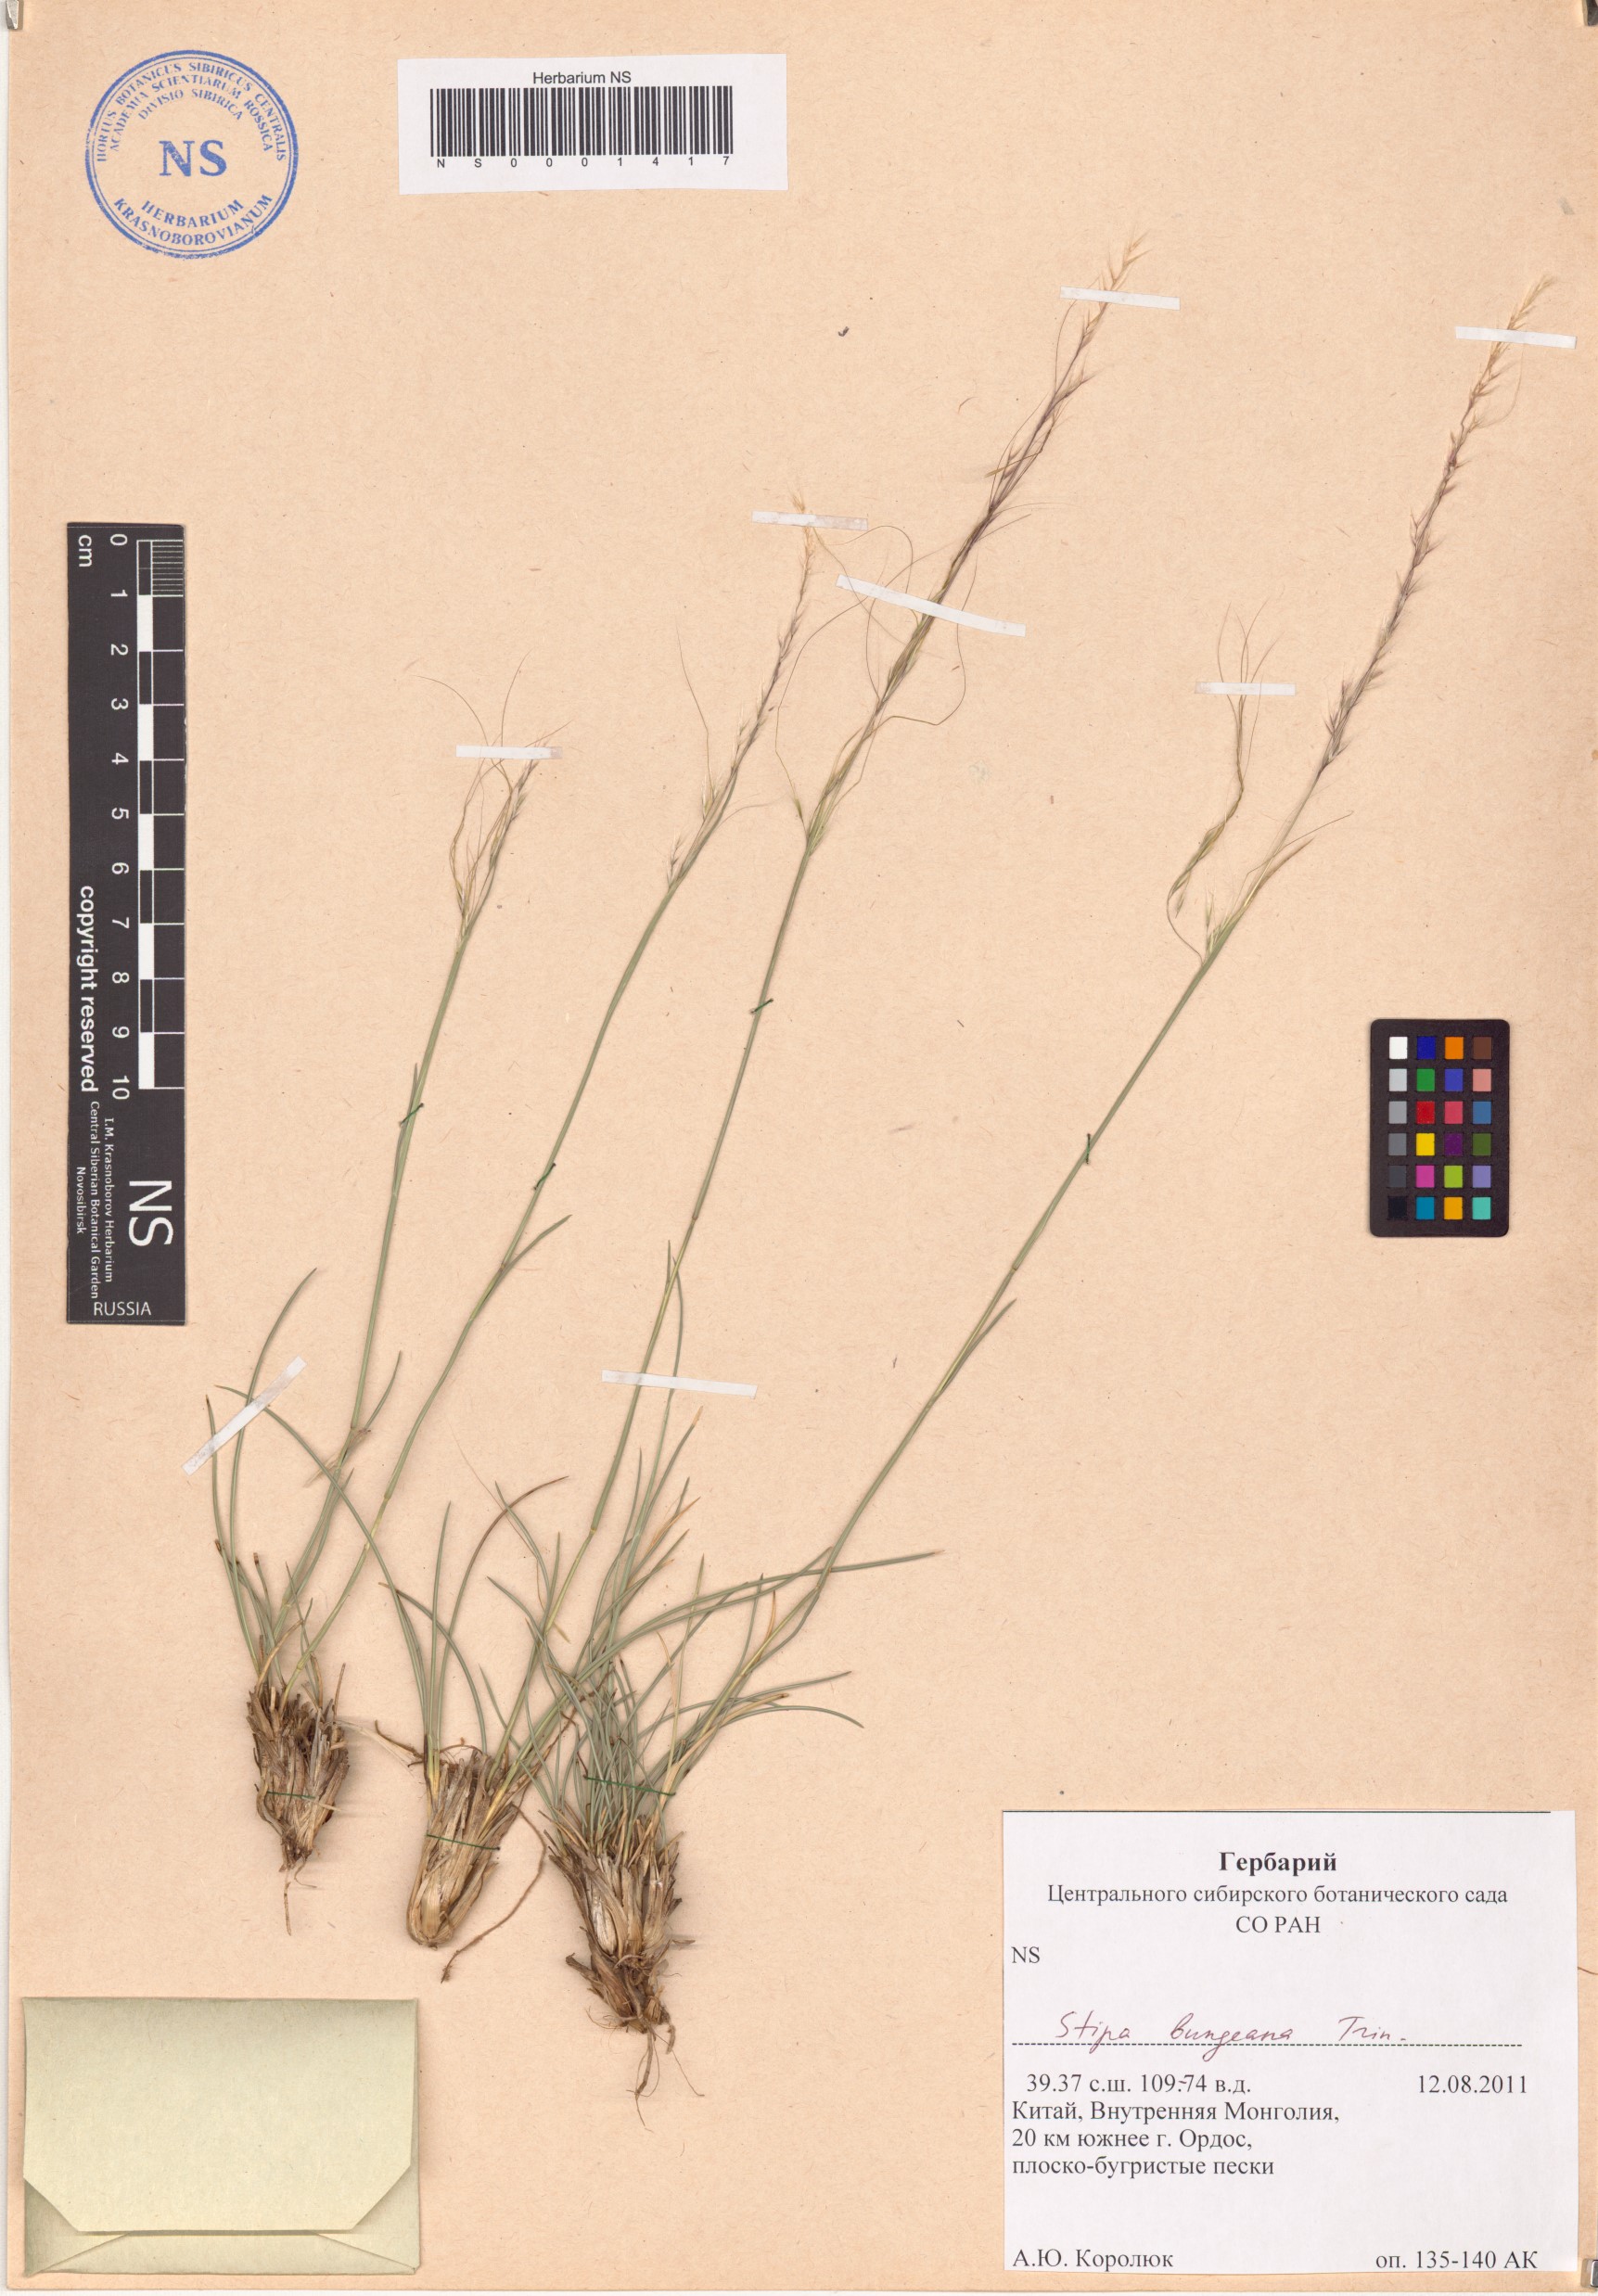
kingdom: Plantae
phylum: Tracheophyta
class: Liliopsida
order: Poales
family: Poaceae
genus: Stipa
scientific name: Stipa bungeana
